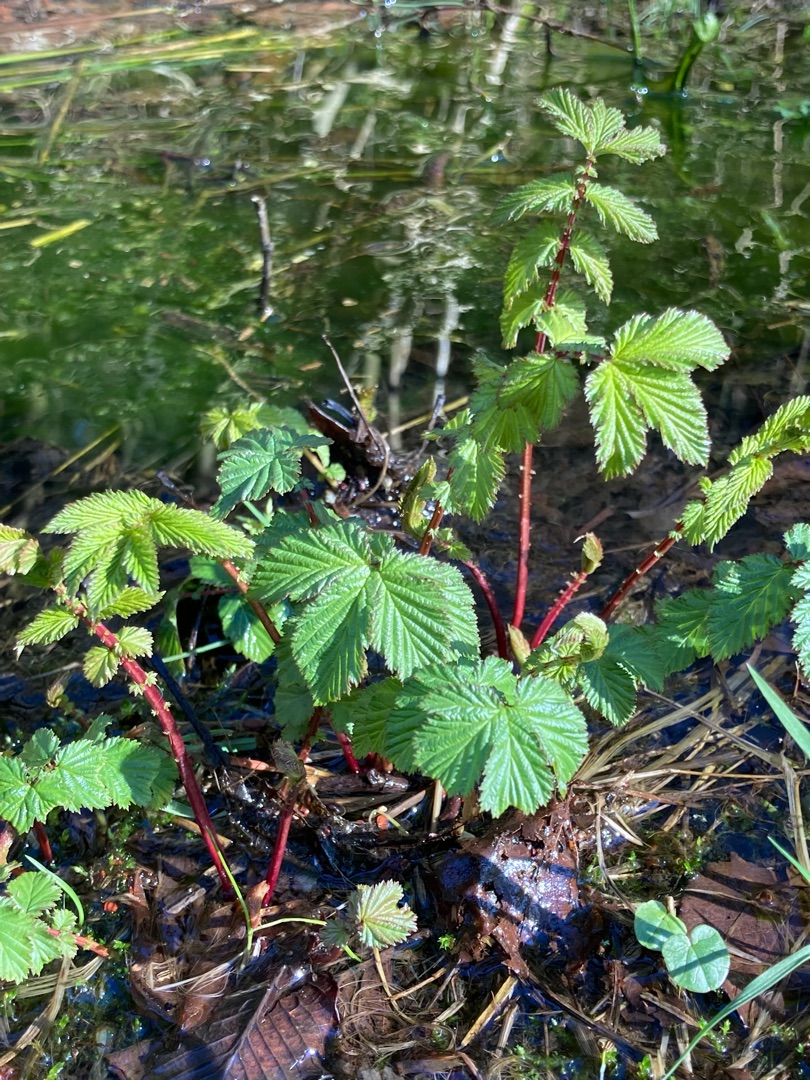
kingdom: Plantae
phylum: Tracheophyta
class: Magnoliopsida
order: Rosales
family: Rosaceae
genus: Filipendula
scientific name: Filipendula ulmaria
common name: Almindelig mjødurt
